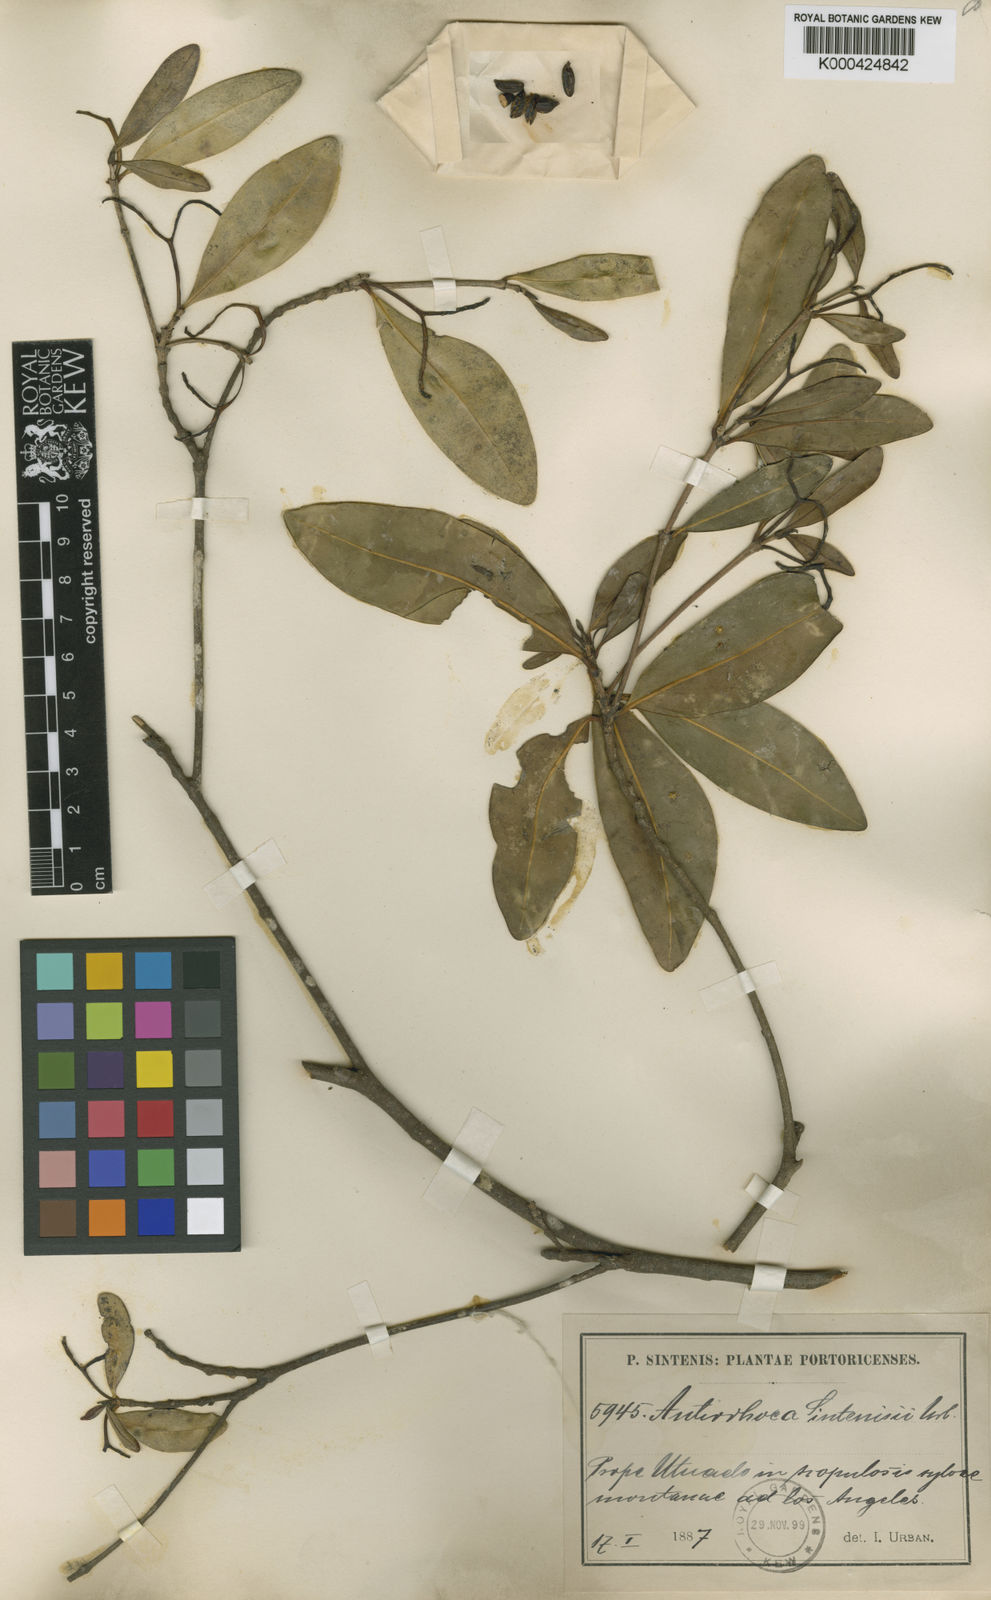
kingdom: Plantae
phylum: Tracheophyta
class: Magnoliopsida
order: Gentianales
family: Rubiaceae
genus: Stenostomum
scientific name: Stenostomum sintenisii
